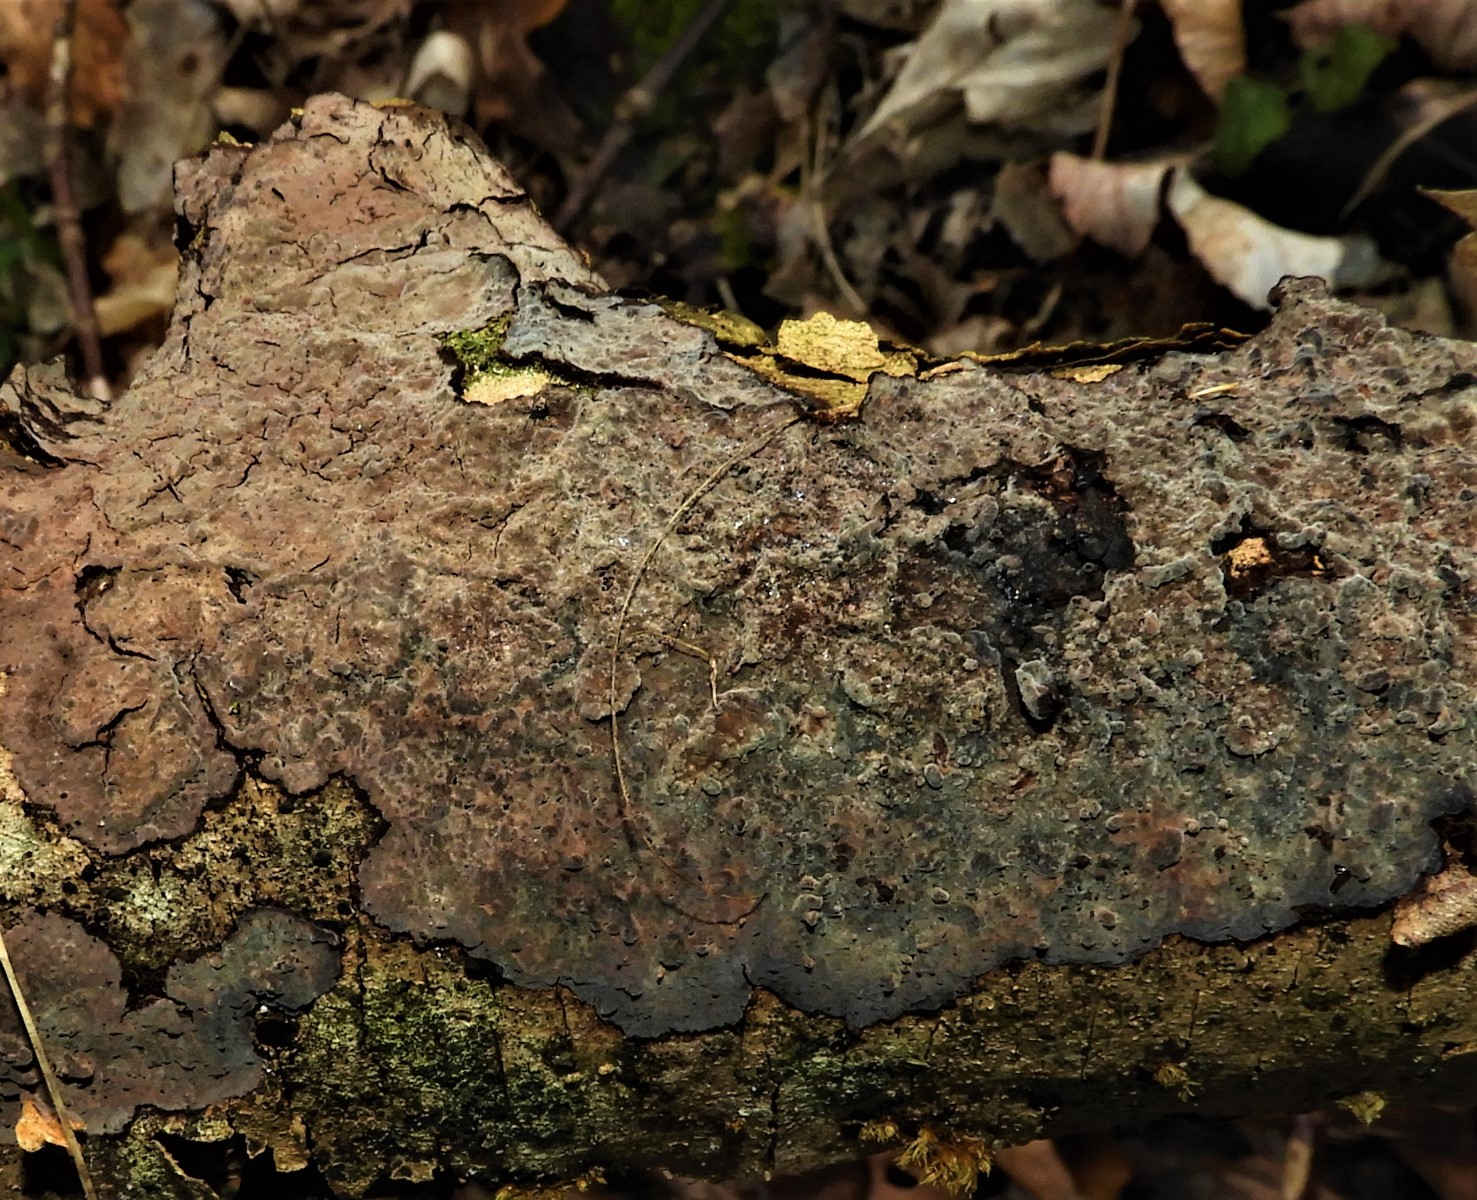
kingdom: Fungi
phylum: Basidiomycota
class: Agaricomycetes
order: Russulales
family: Peniophoraceae
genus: Peniophora
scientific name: Peniophora quercina
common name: ege-voksskind
